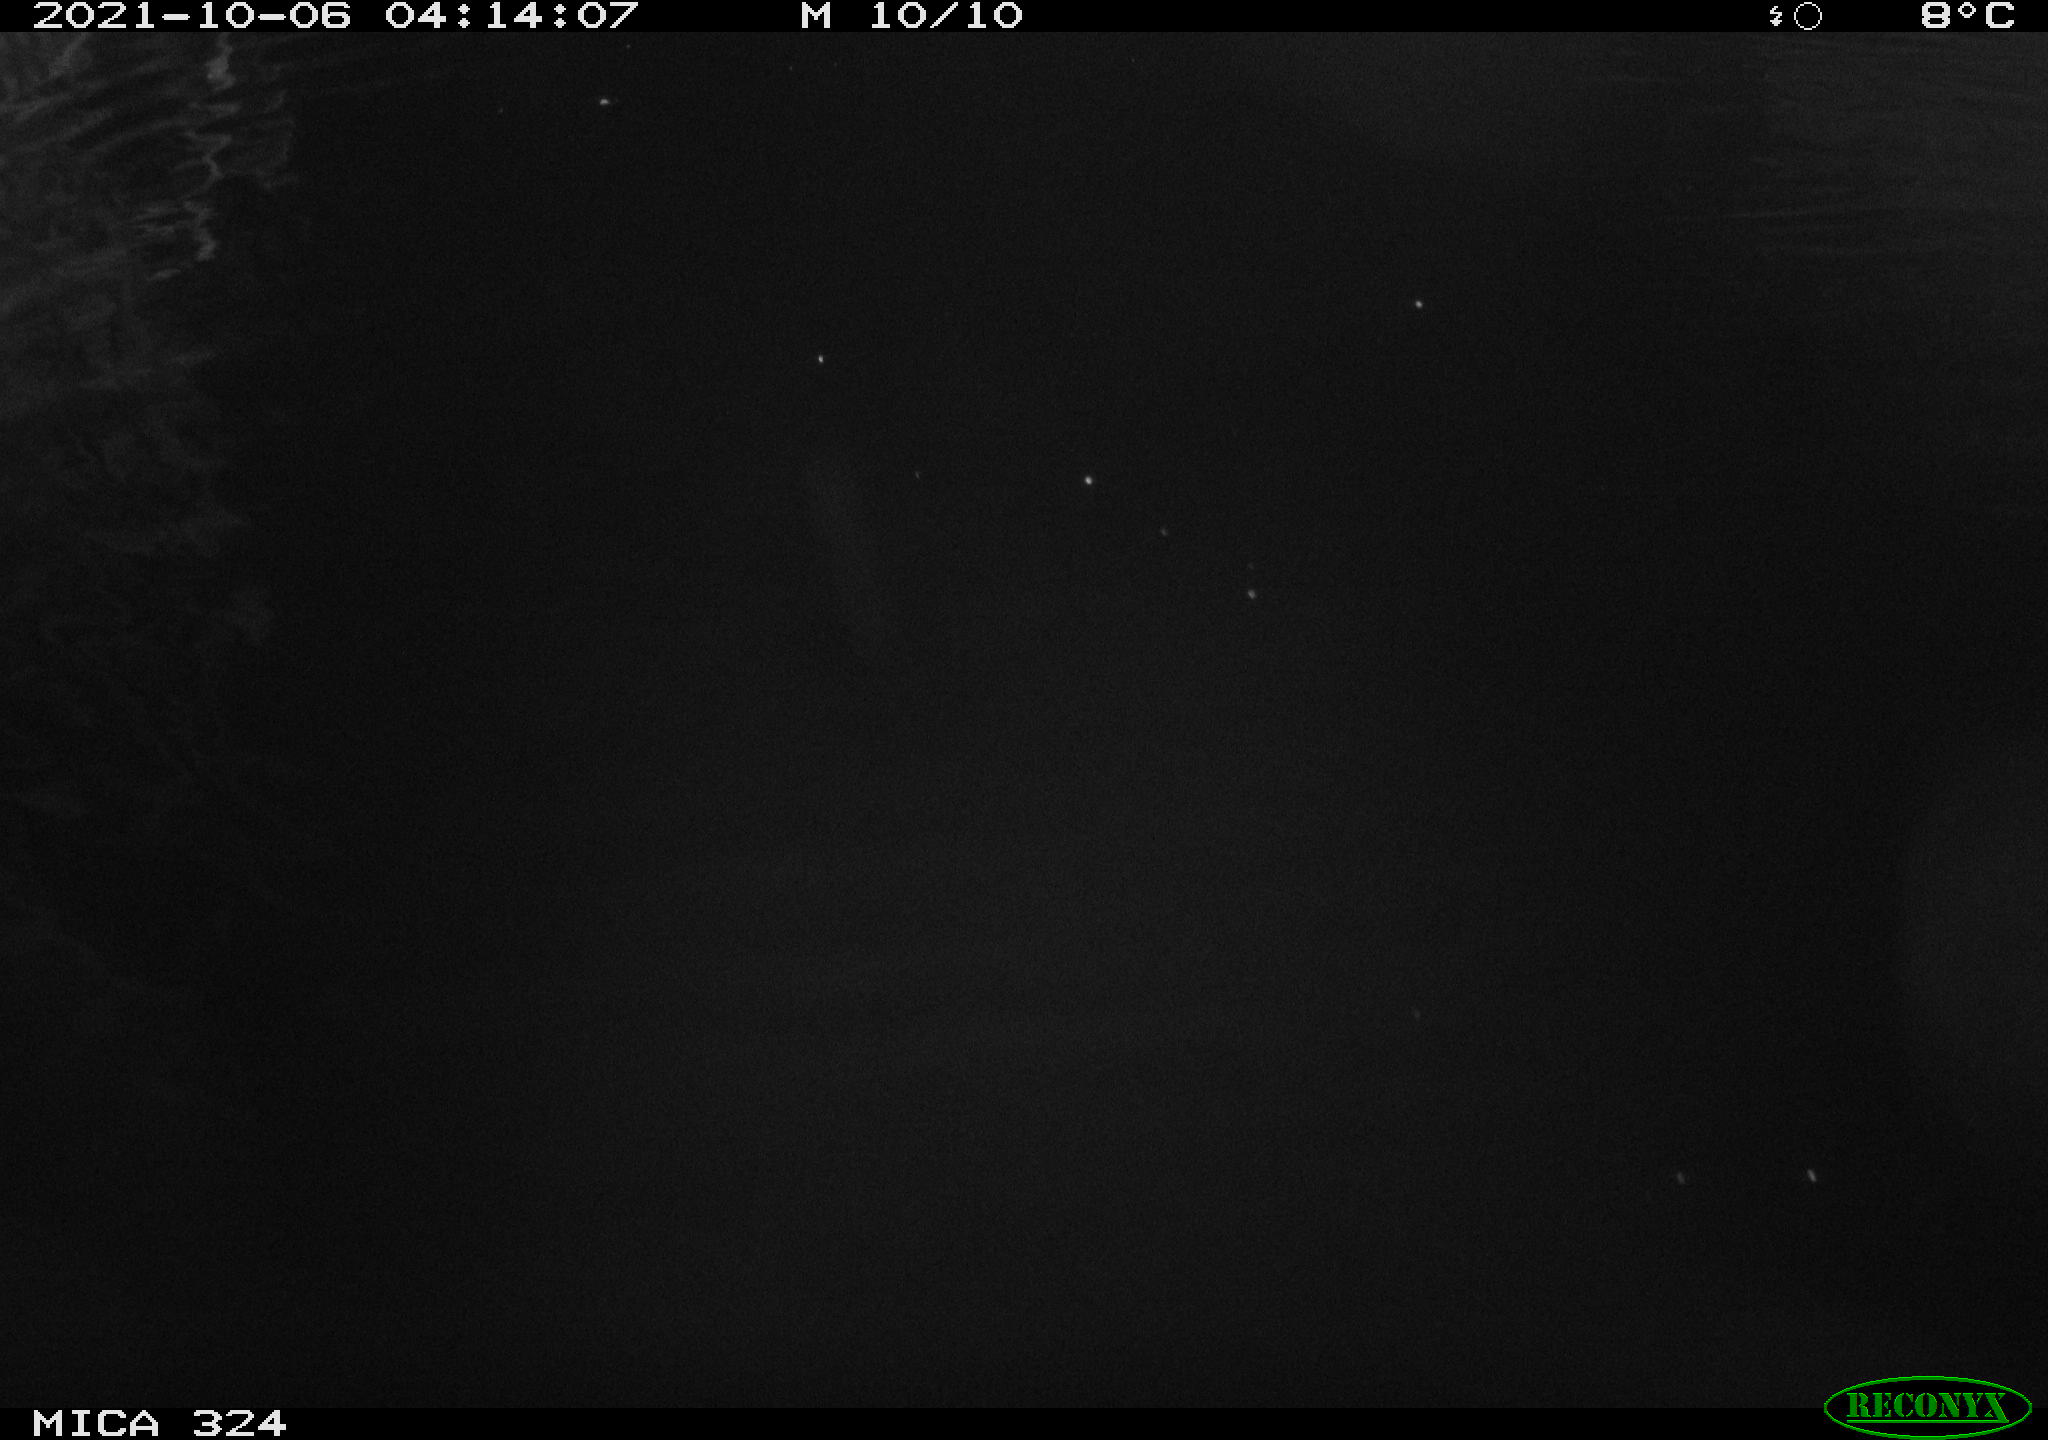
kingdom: Animalia
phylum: Chordata
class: Mammalia
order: Rodentia
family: Cricetidae
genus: Ondatra
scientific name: Ondatra zibethicus
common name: Muskrat
